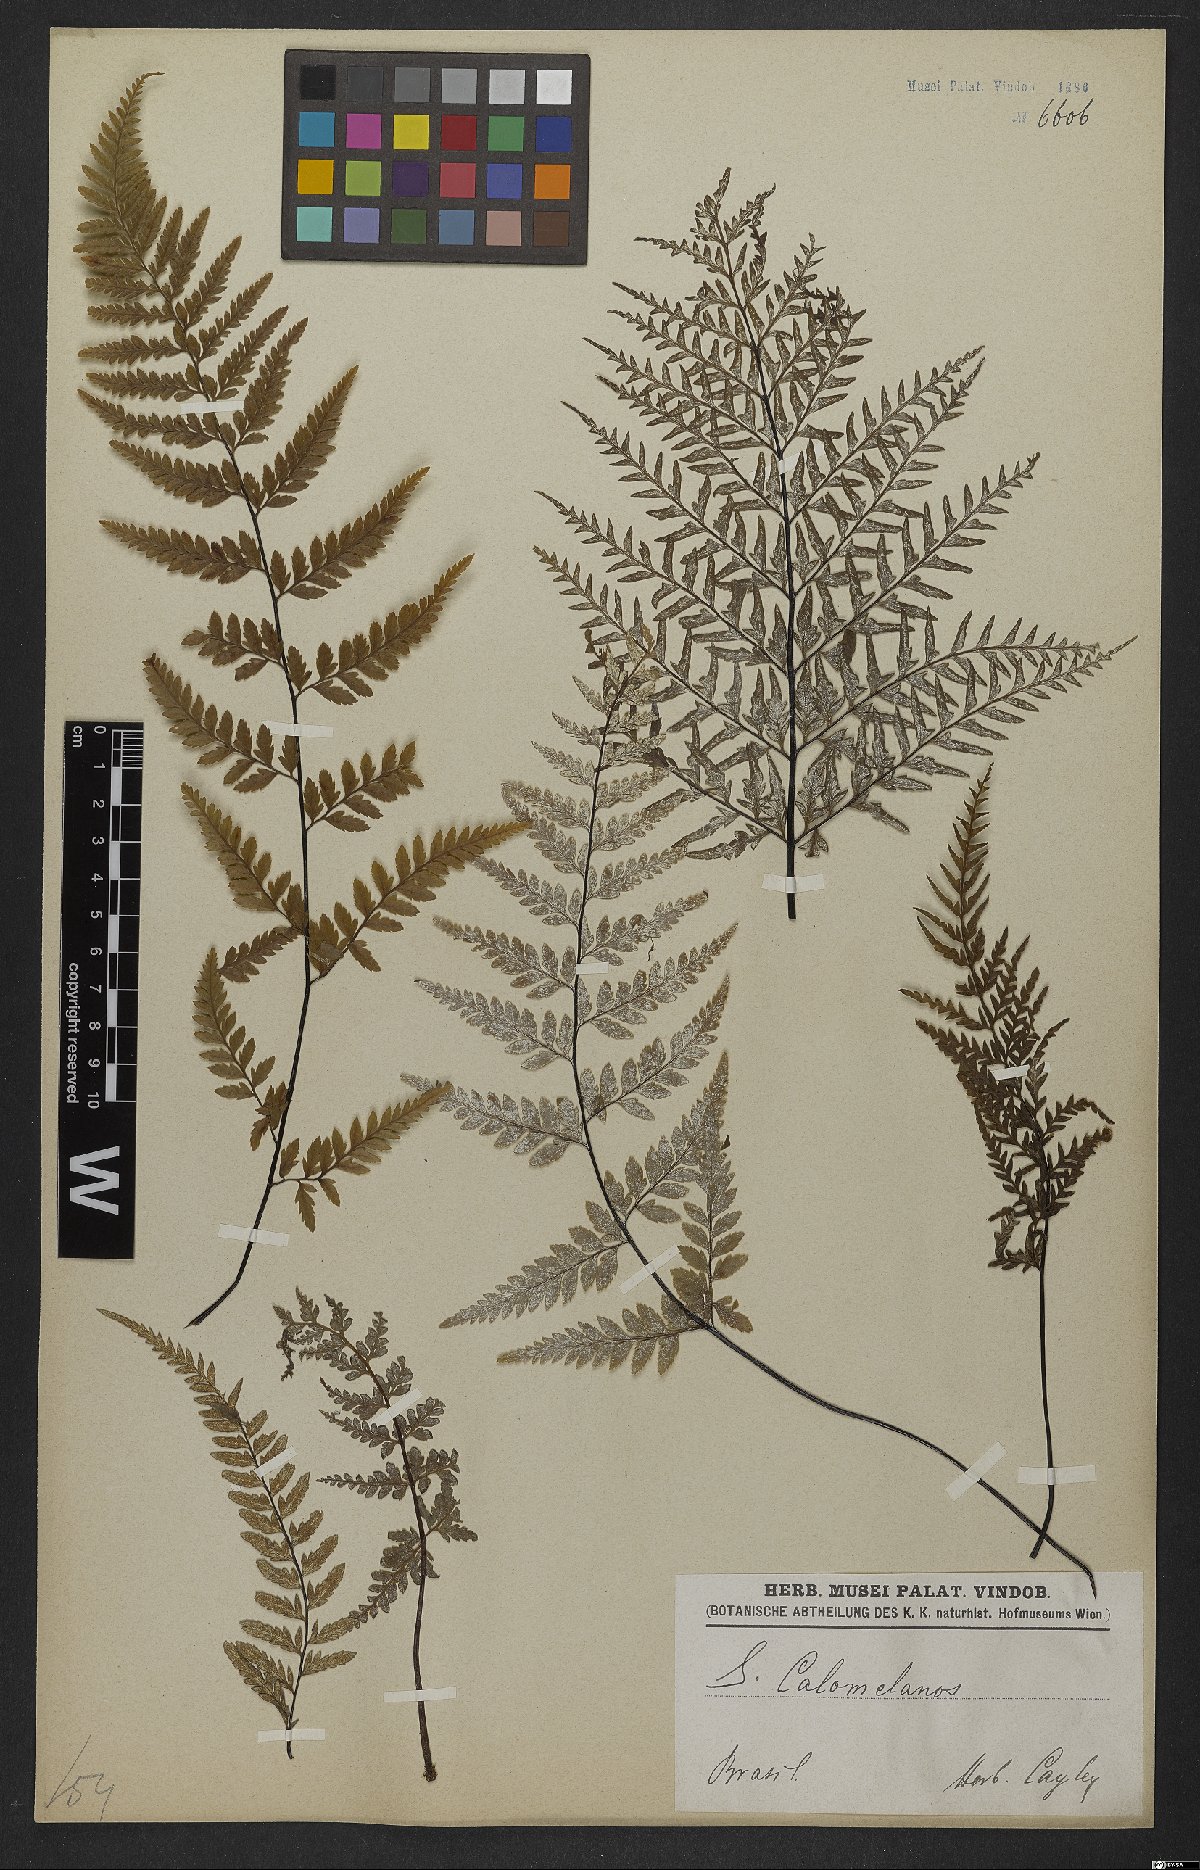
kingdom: Plantae
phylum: Tracheophyta
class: Polypodiopsida
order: Polypodiales
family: Pteridaceae
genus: Pityrogramma
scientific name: Pityrogramma calomelanos
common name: Dixie silverback fern
